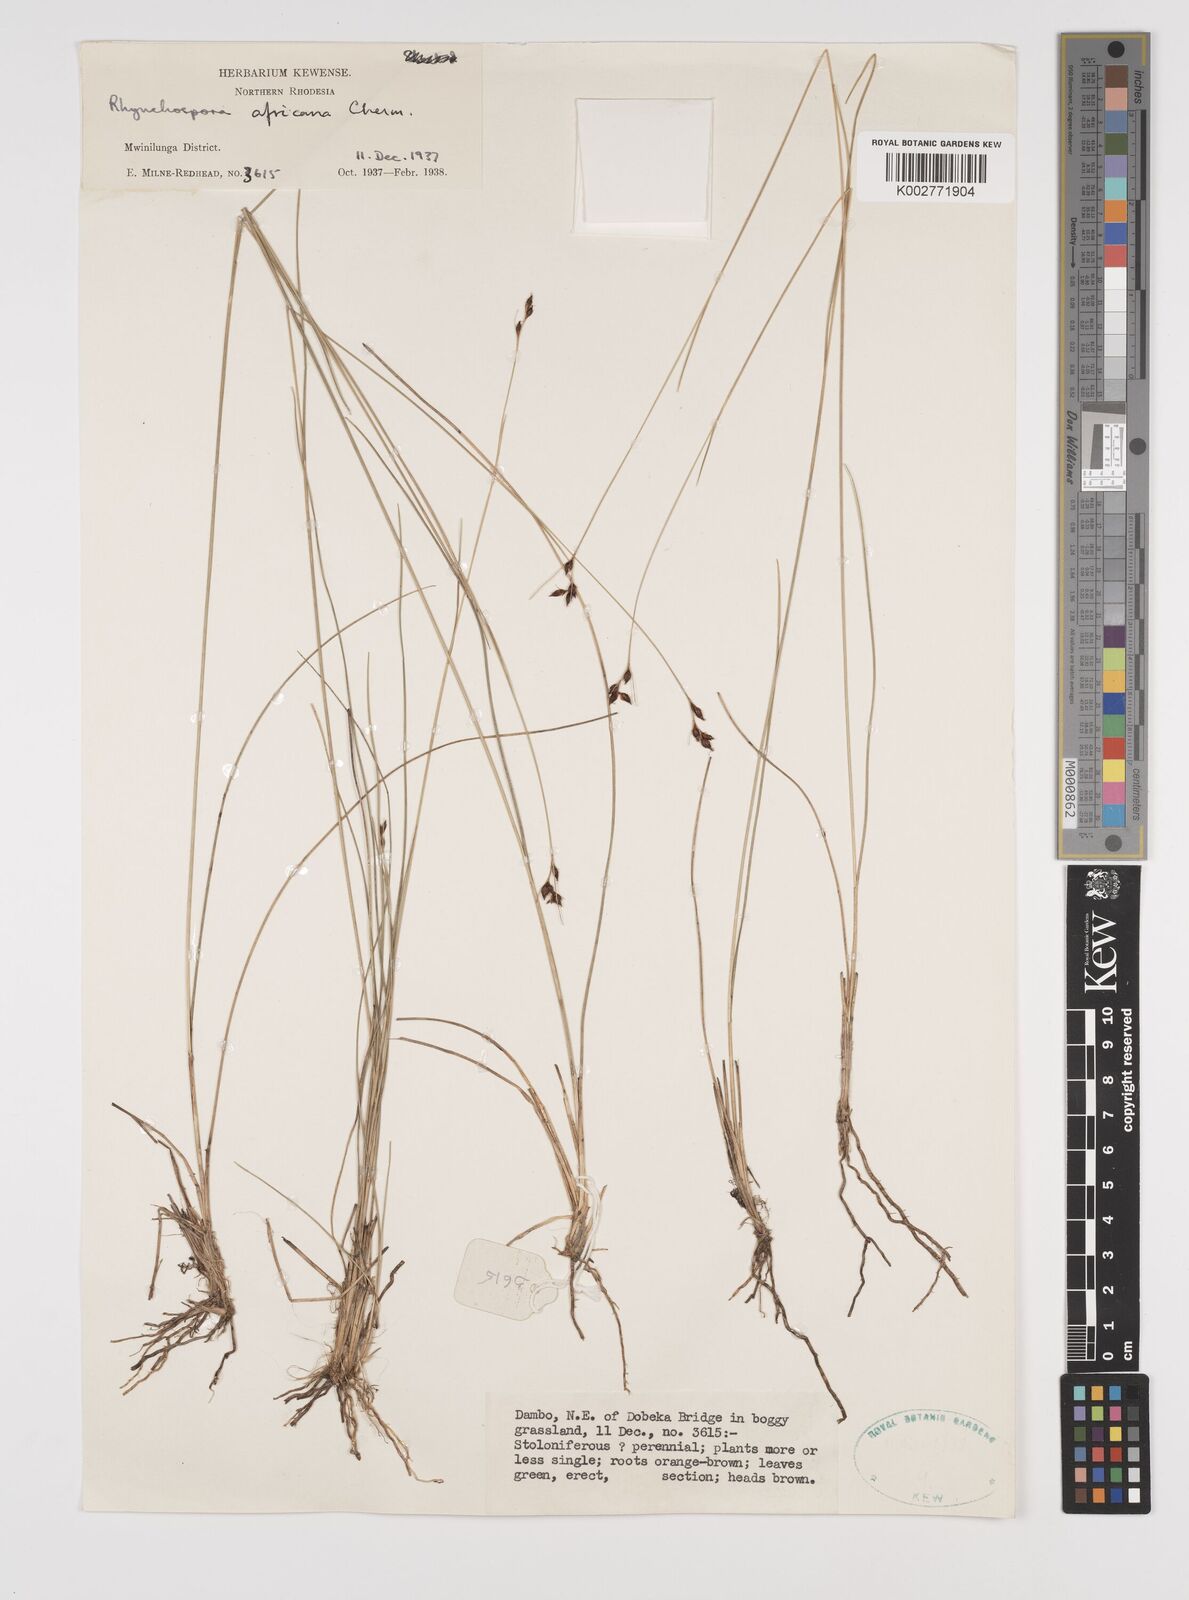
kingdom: Plantae
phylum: Tracheophyta
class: Liliopsida
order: Poales
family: Cyperaceae
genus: Rhynchospora
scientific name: Rhynchospora angolensis
